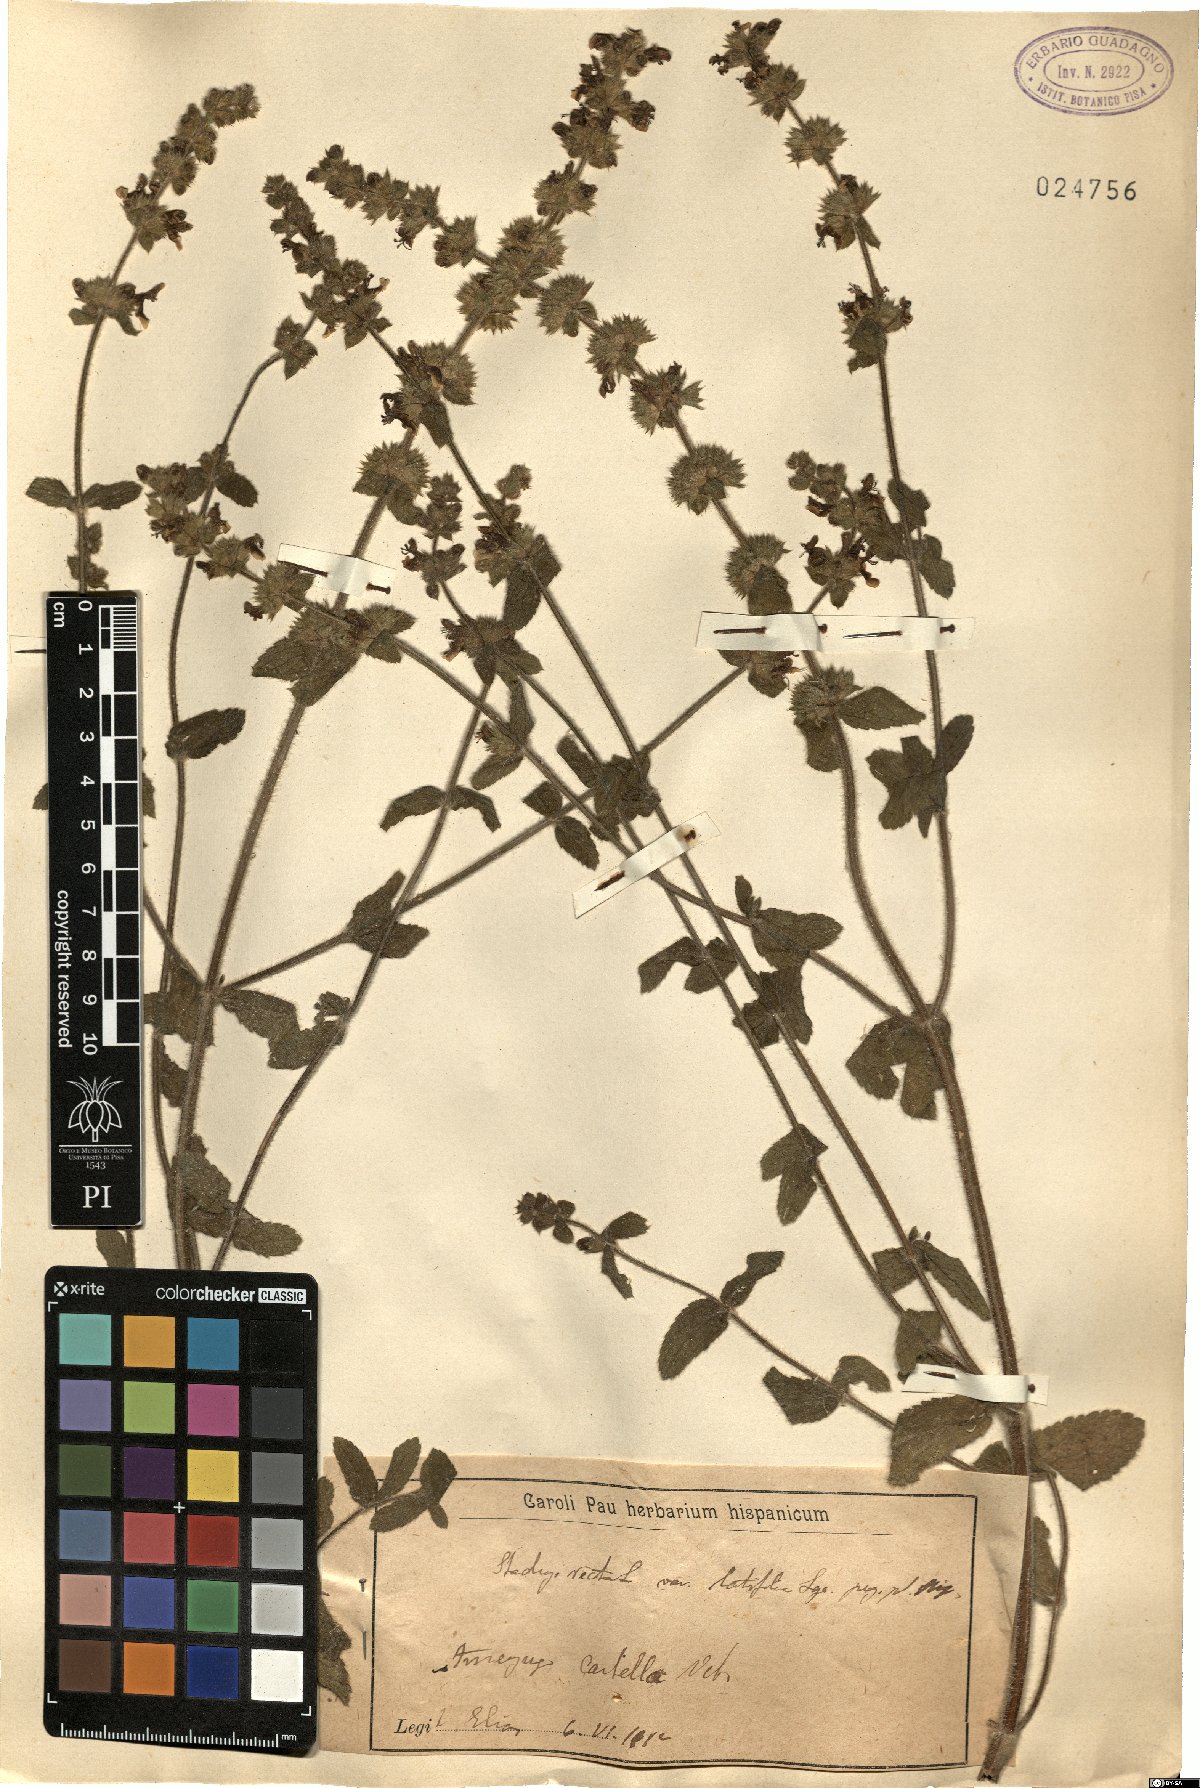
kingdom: Plantae
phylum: Tracheophyta
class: Magnoliopsida
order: Lamiales
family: Lamiaceae
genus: Stachys
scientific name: Stachys recta
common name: Perennial yellow-woundwort
